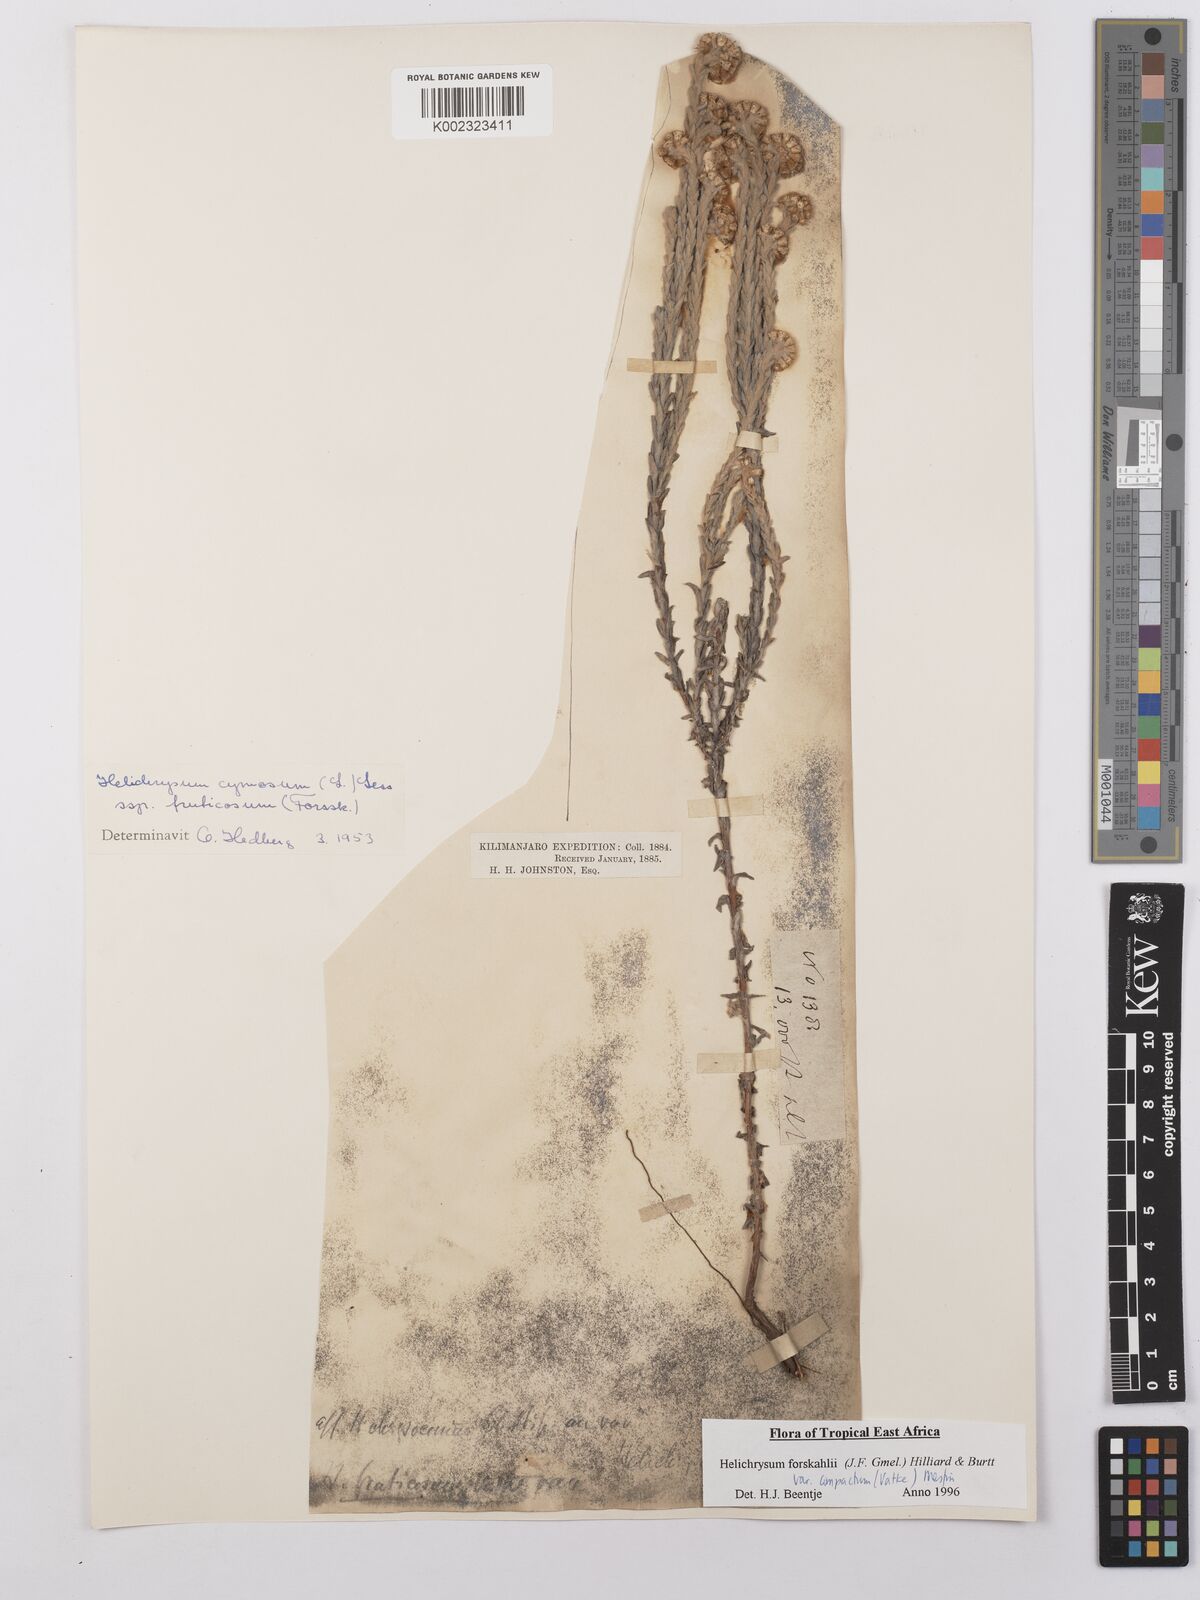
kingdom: Plantae
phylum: Tracheophyta
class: Magnoliopsida
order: Asterales
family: Asteraceae
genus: Helichrysum
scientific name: Helichrysum forskahlii
